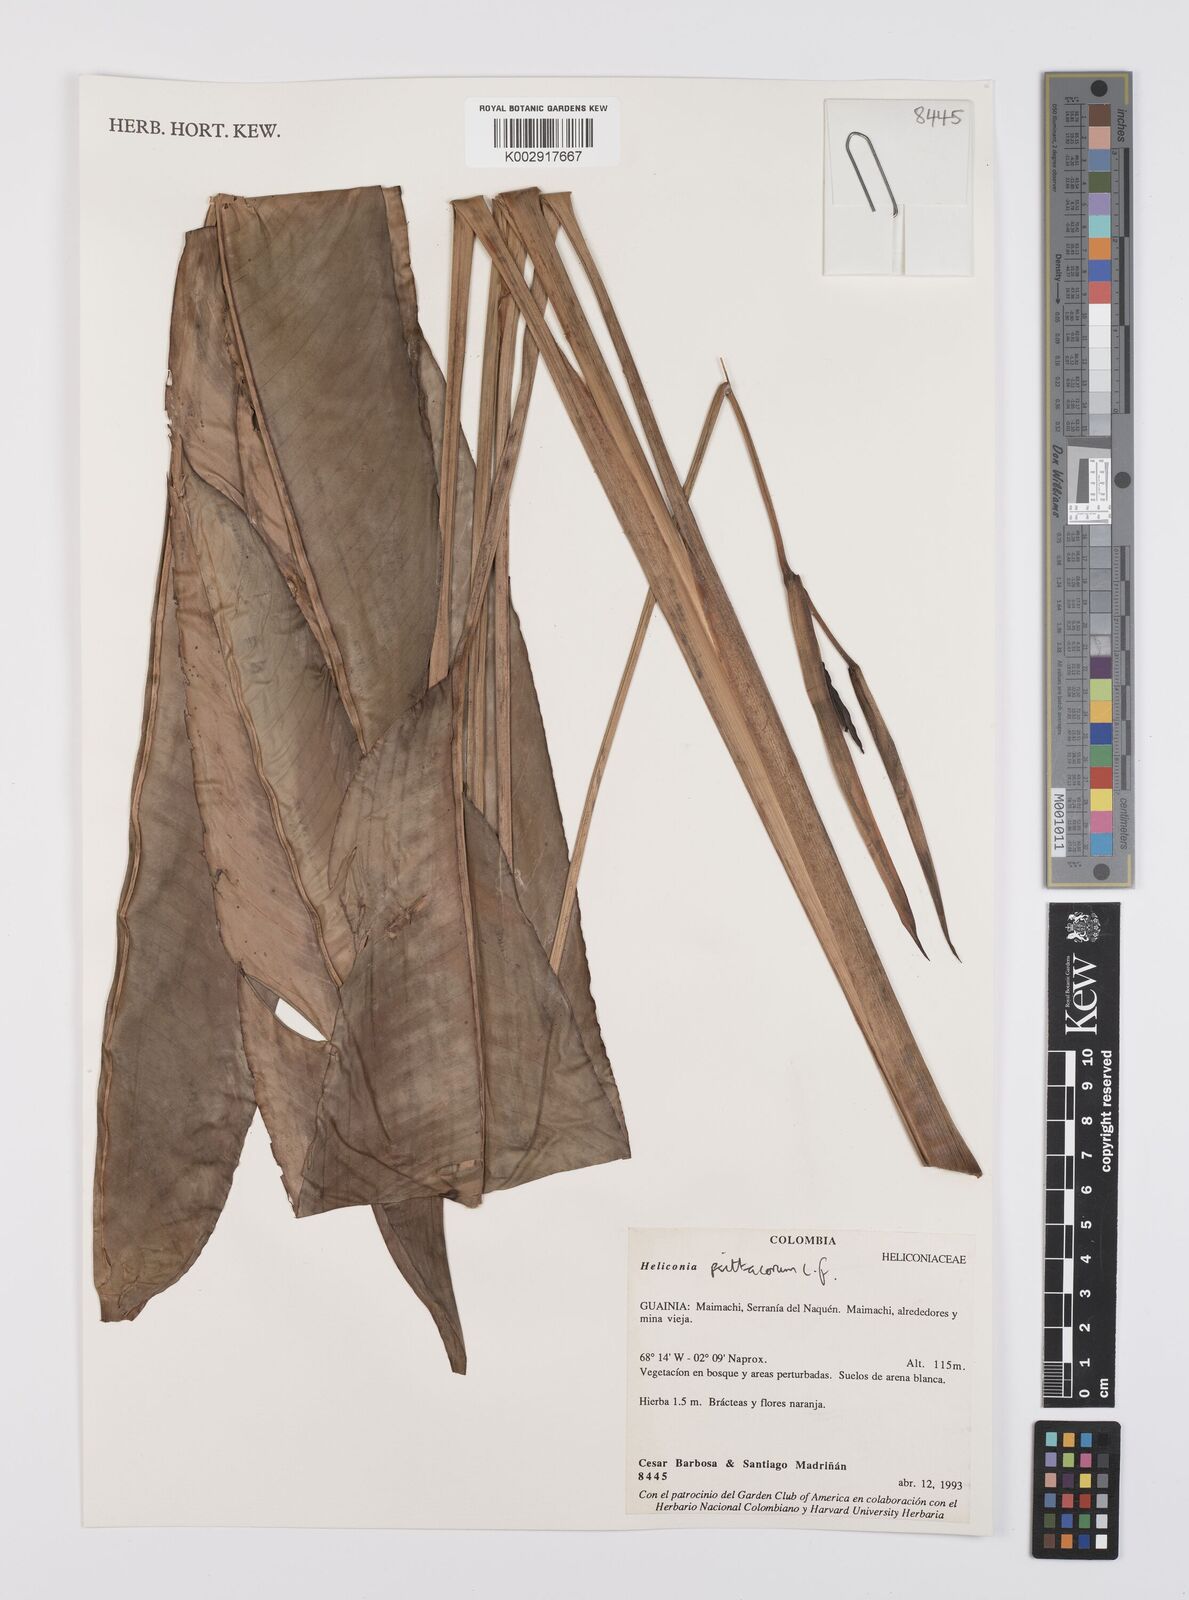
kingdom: Plantae
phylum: Tracheophyta
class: Liliopsida
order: Zingiberales
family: Heliconiaceae
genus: Heliconia
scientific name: Heliconia psittacorum
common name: Parrot's-flower
